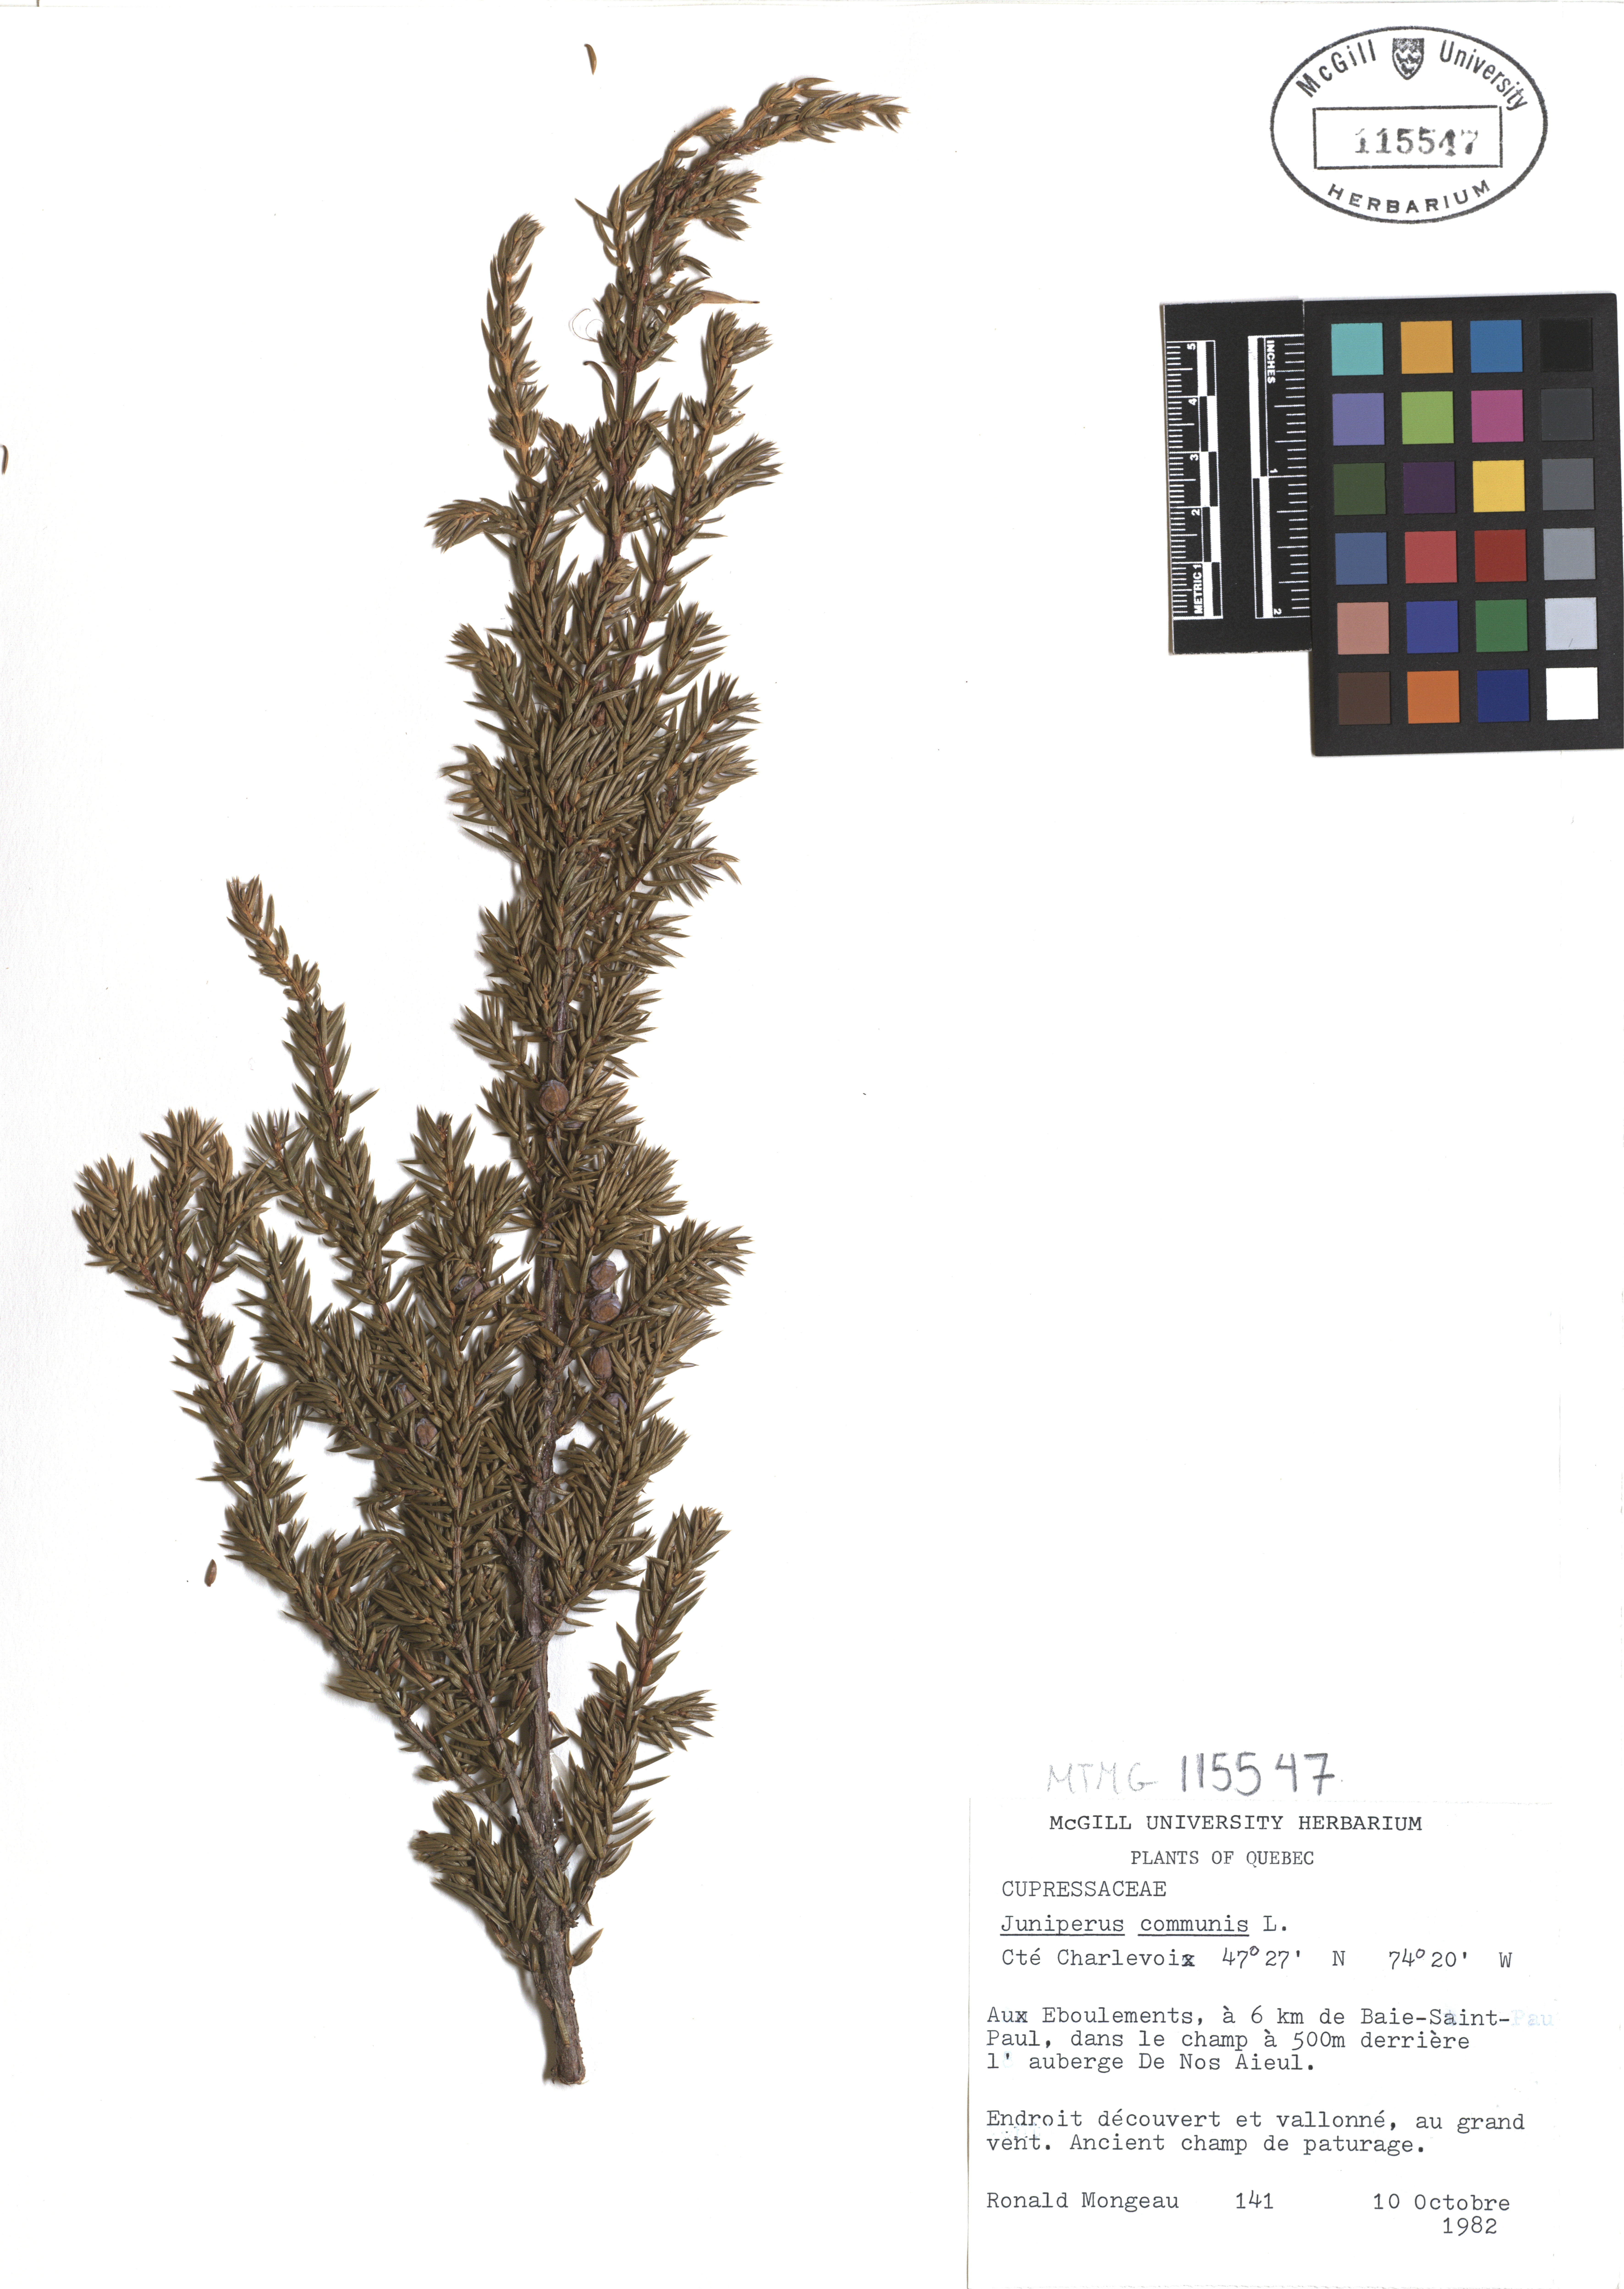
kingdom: Plantae
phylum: Tracheophyta
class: Pinopsida
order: Pinales
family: Cupressaceae
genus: Juniperus
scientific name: Juniperus communis
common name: Common juniper
